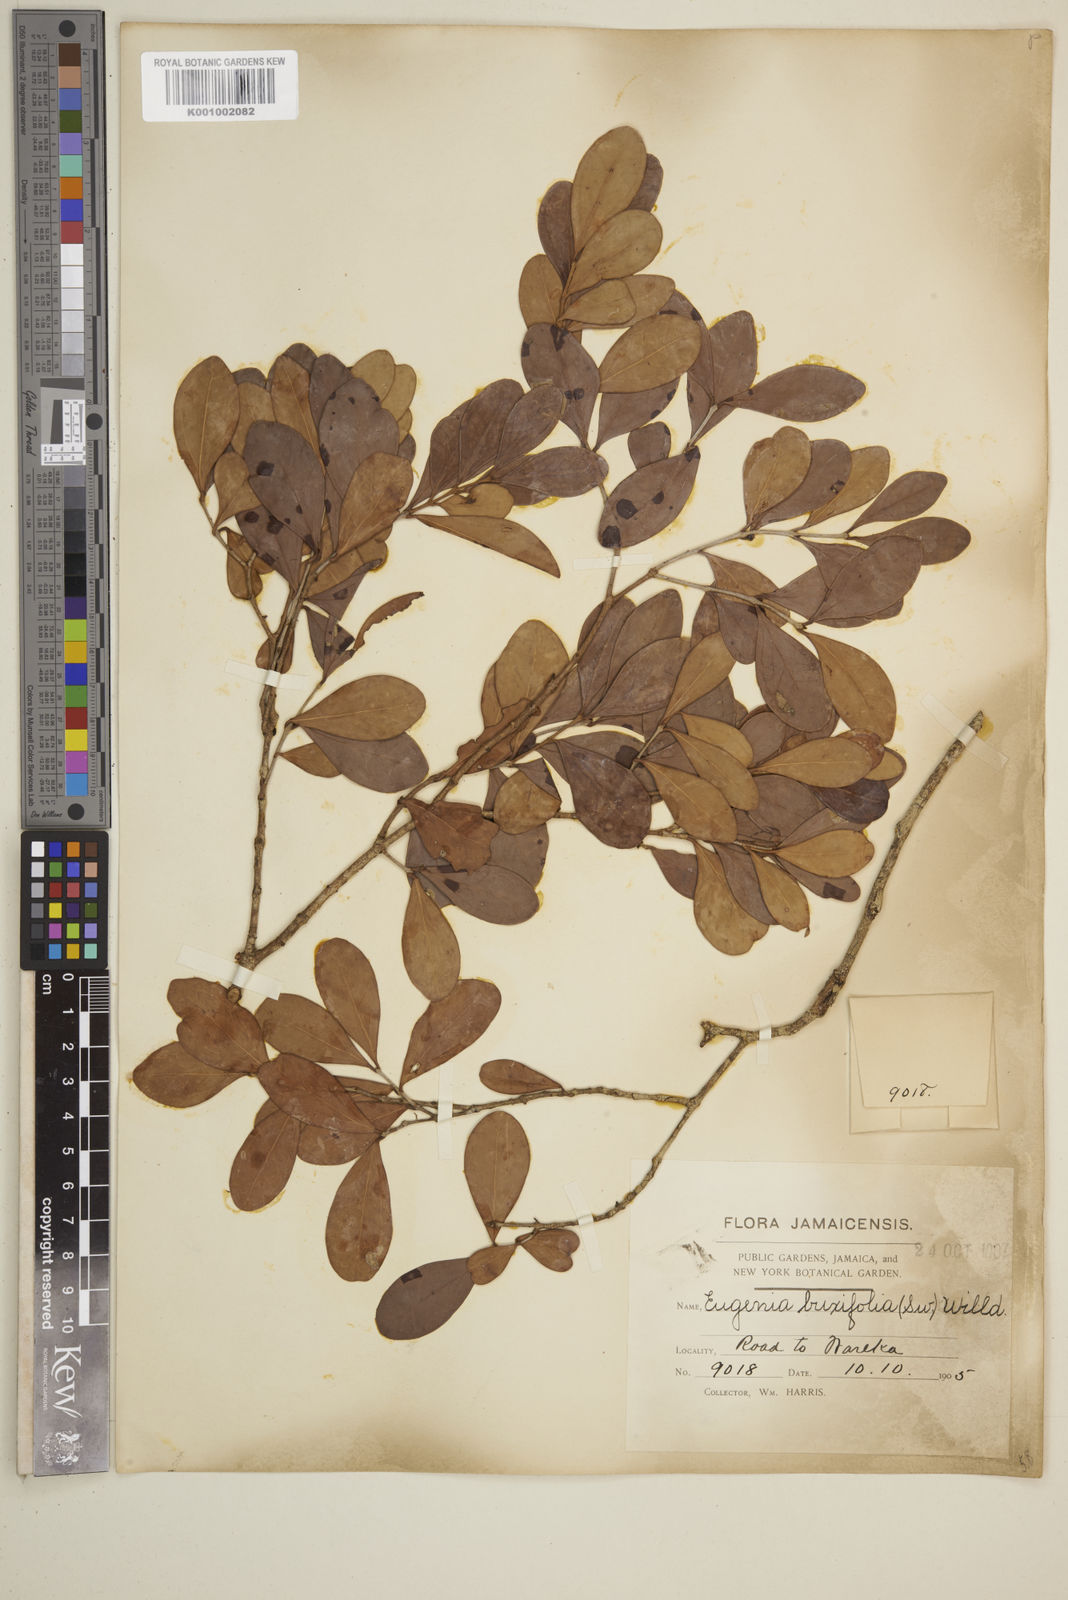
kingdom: Plantae
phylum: Tracheophyta
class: Magnoliopsida
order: Myrtales
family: Myrtaceae
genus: Eugenia
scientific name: Eugenia buxifolia
